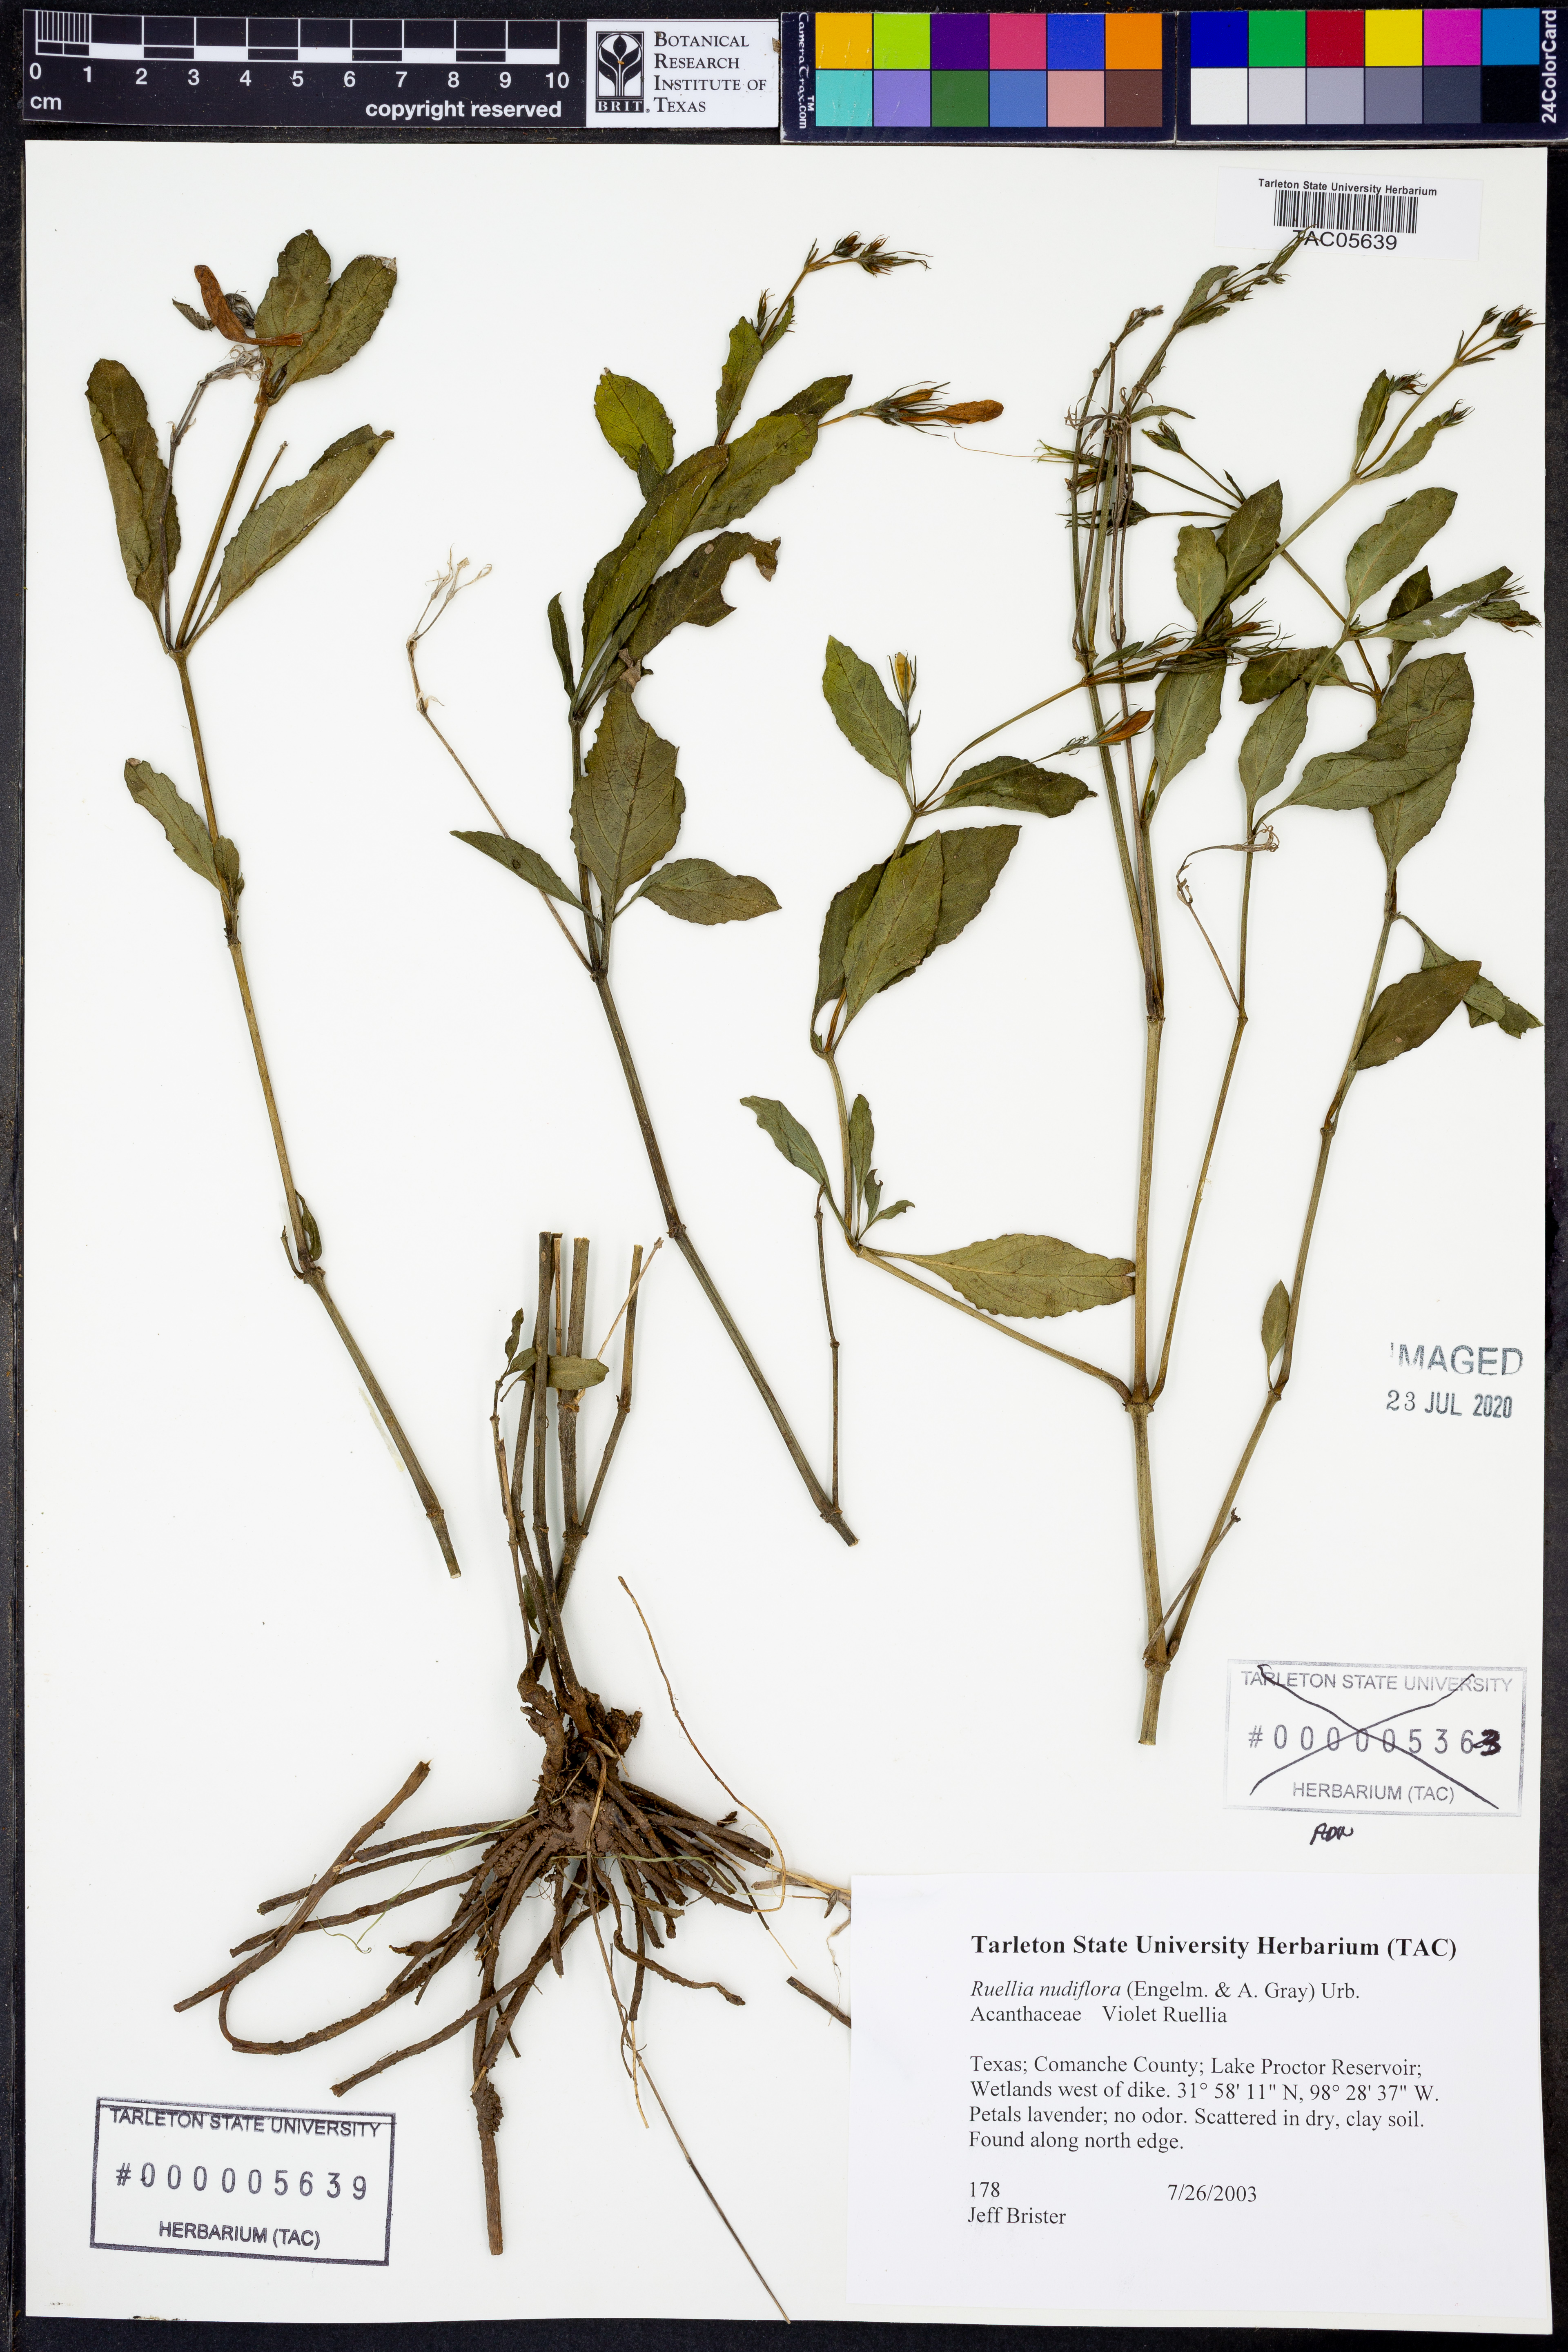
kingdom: Plantae
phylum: Tracheophyta
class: Magnoliopsida
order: Lamiales
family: Acanthaceae
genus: Ruellia
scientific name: Ruellia ciliatiflora
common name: Hairyflower wild petunia
